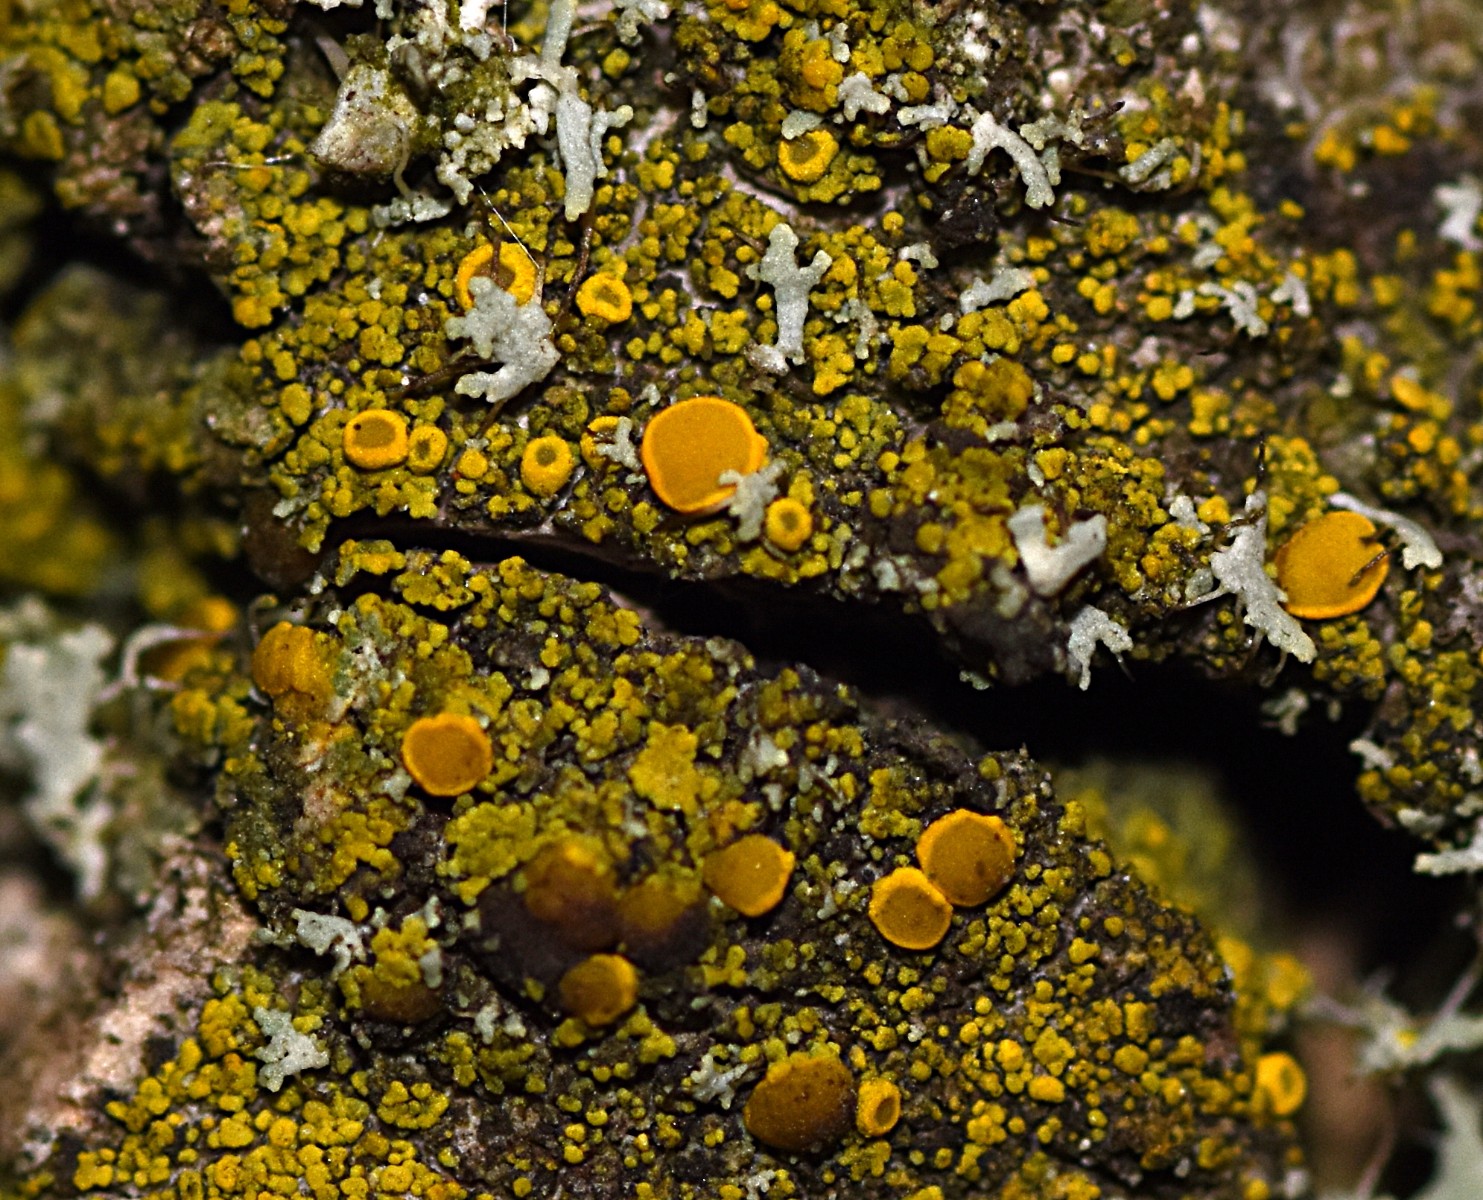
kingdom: Fungi
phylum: Ascomycota
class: Candelariomycetes
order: Candelariales
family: Candelariaceae
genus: Candelariella
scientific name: Candelariella vitellina
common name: almindelig æggeblommelav
